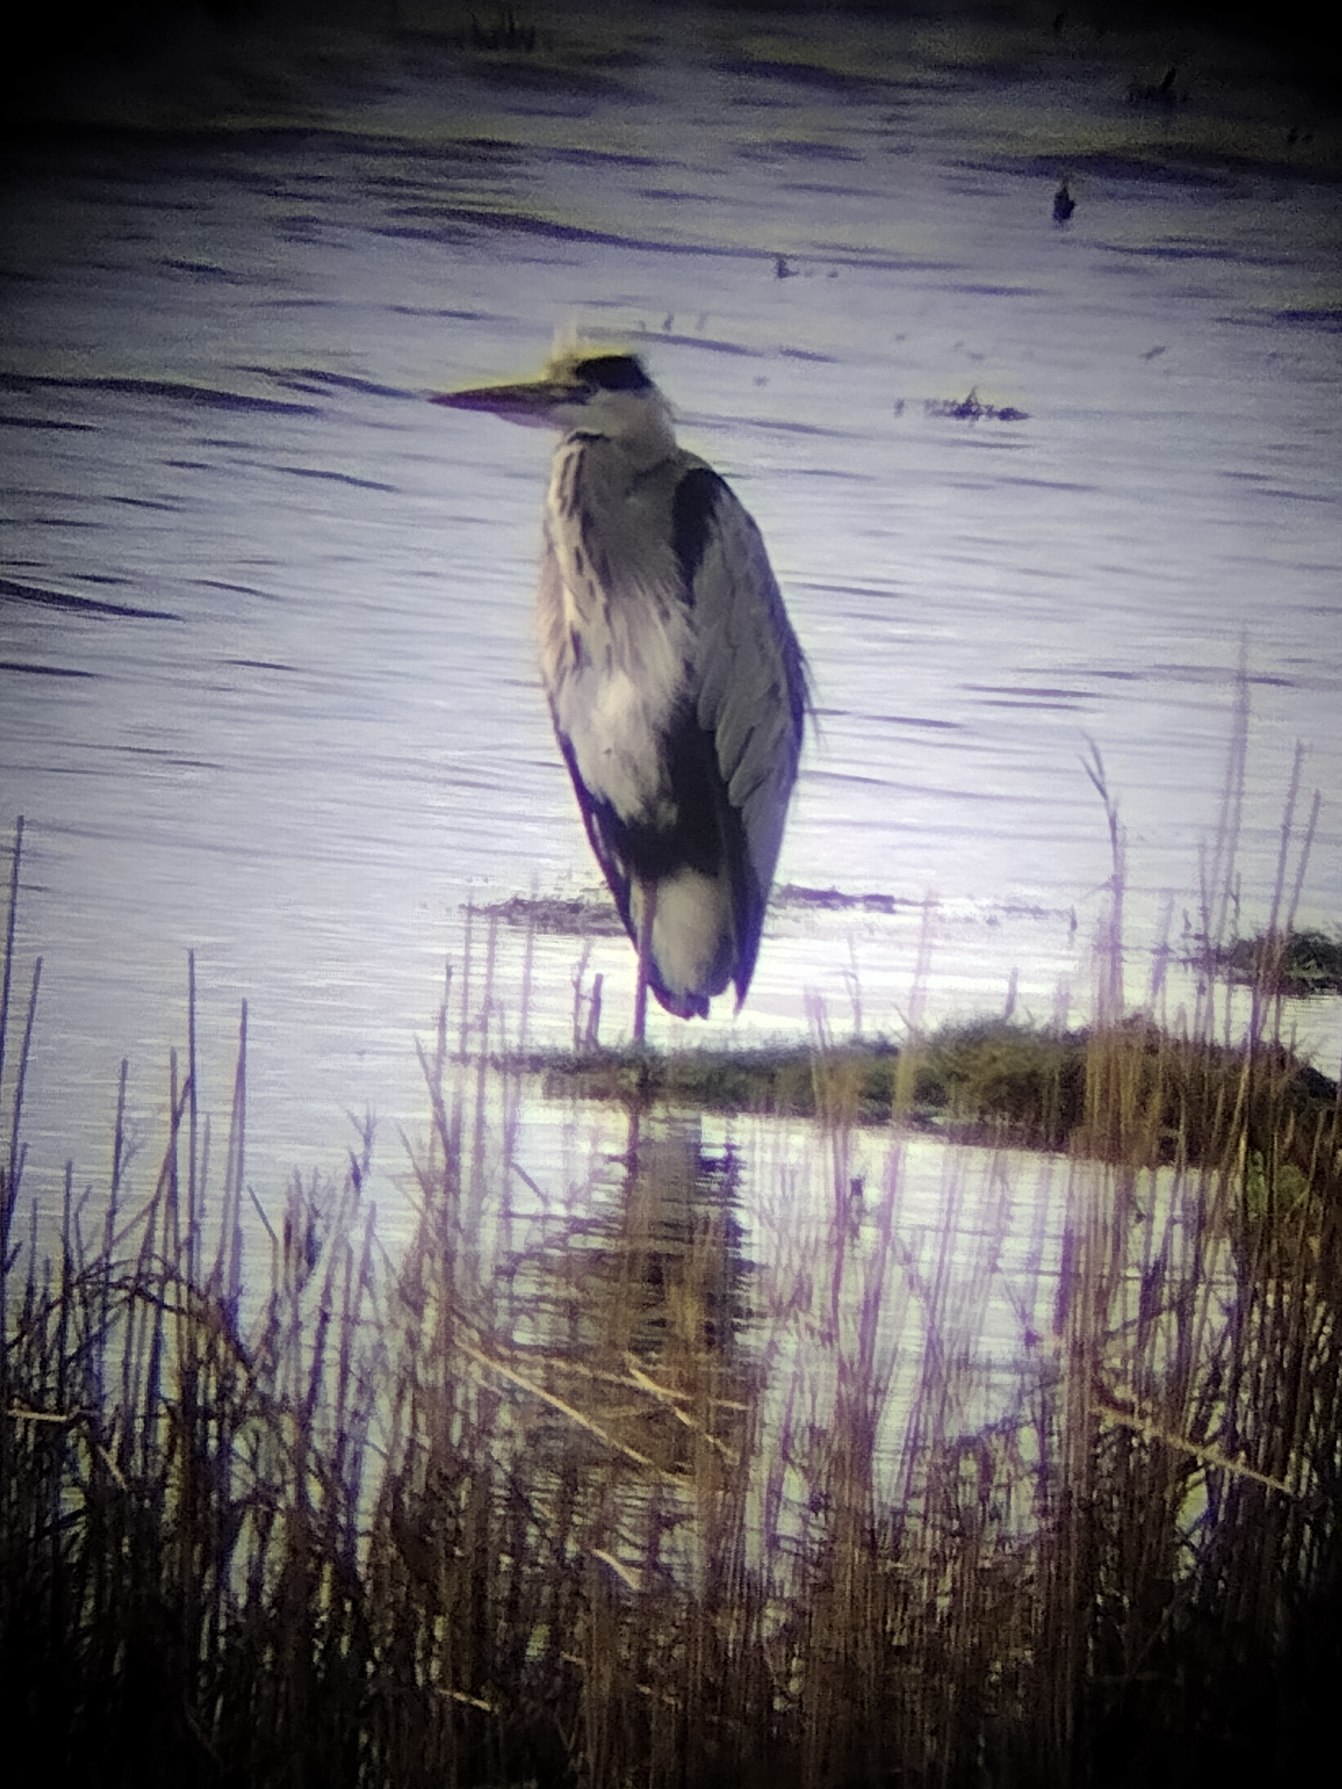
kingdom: Animalia
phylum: Chordata
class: Aves
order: Pelecaniformes
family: Ardeidae
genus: Ardea
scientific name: Ardea cinerea
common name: Fiskehejre
